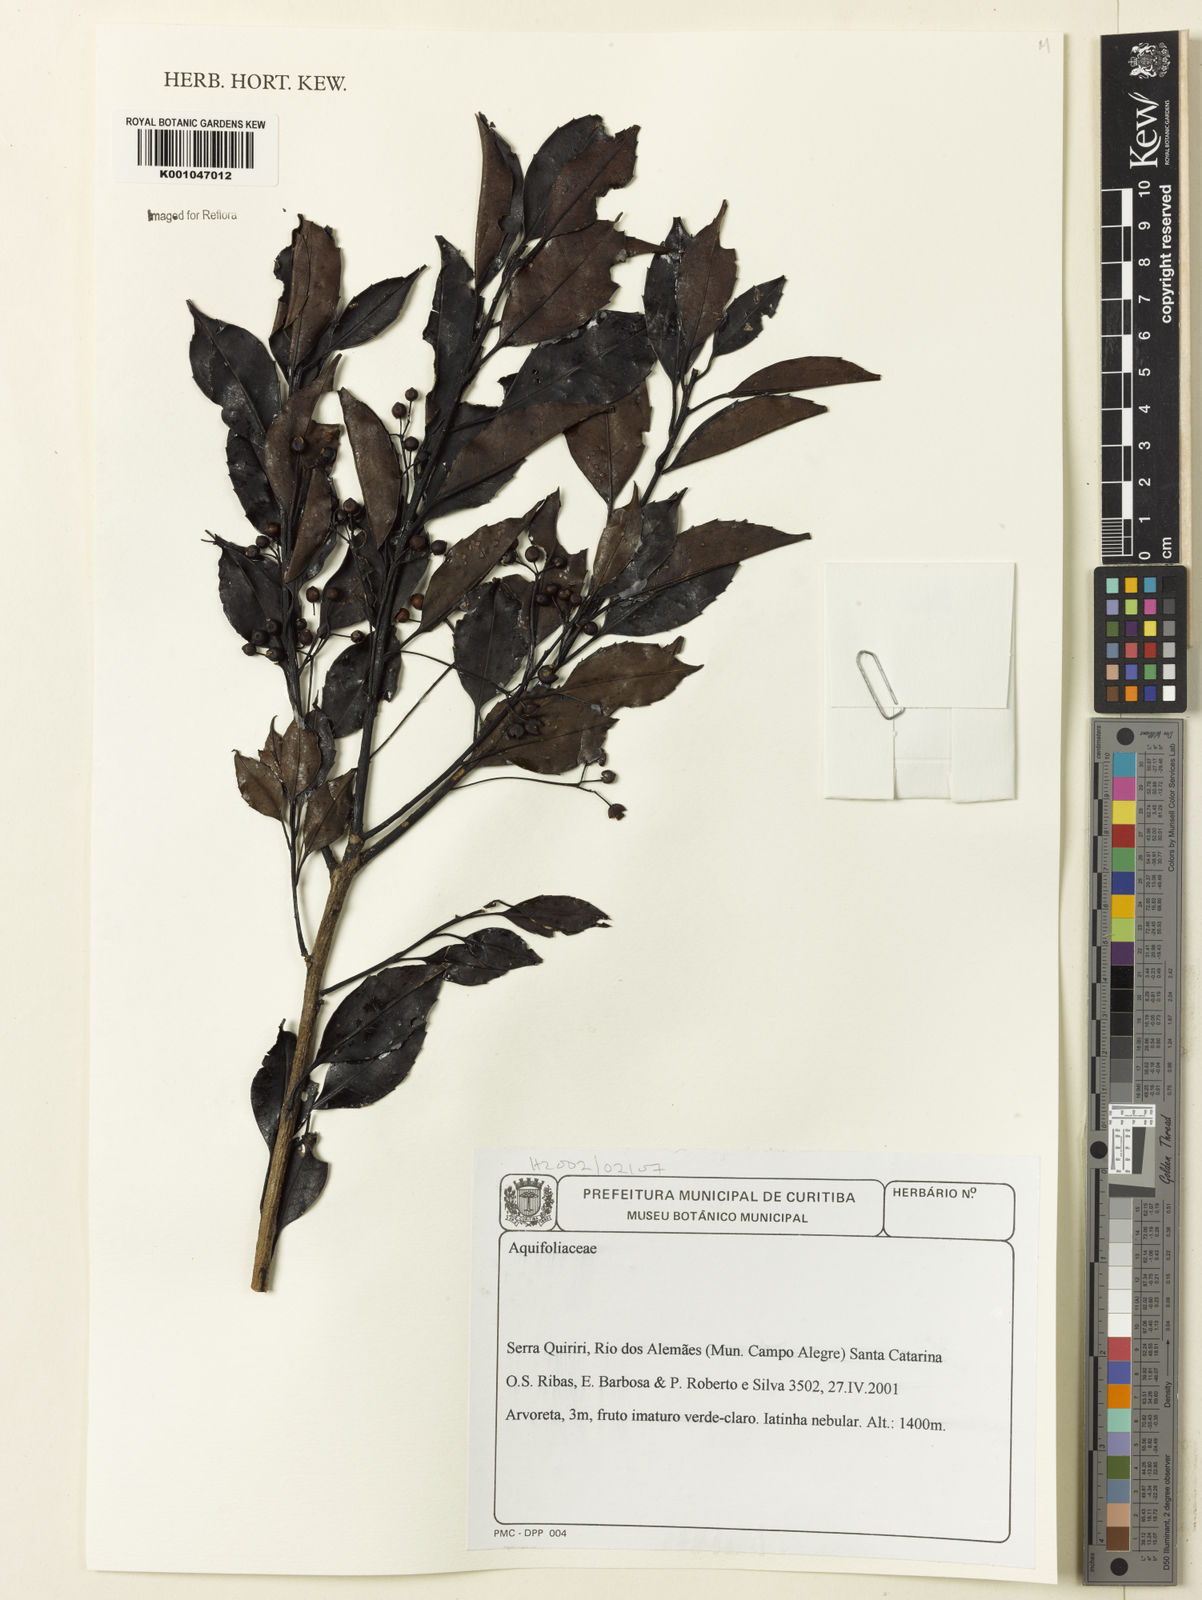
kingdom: Plantae
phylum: Tracheophyta
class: Magnoliopsida
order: Aquifoliales
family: Aquifoliaceae
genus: Ilex
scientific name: Ilex
